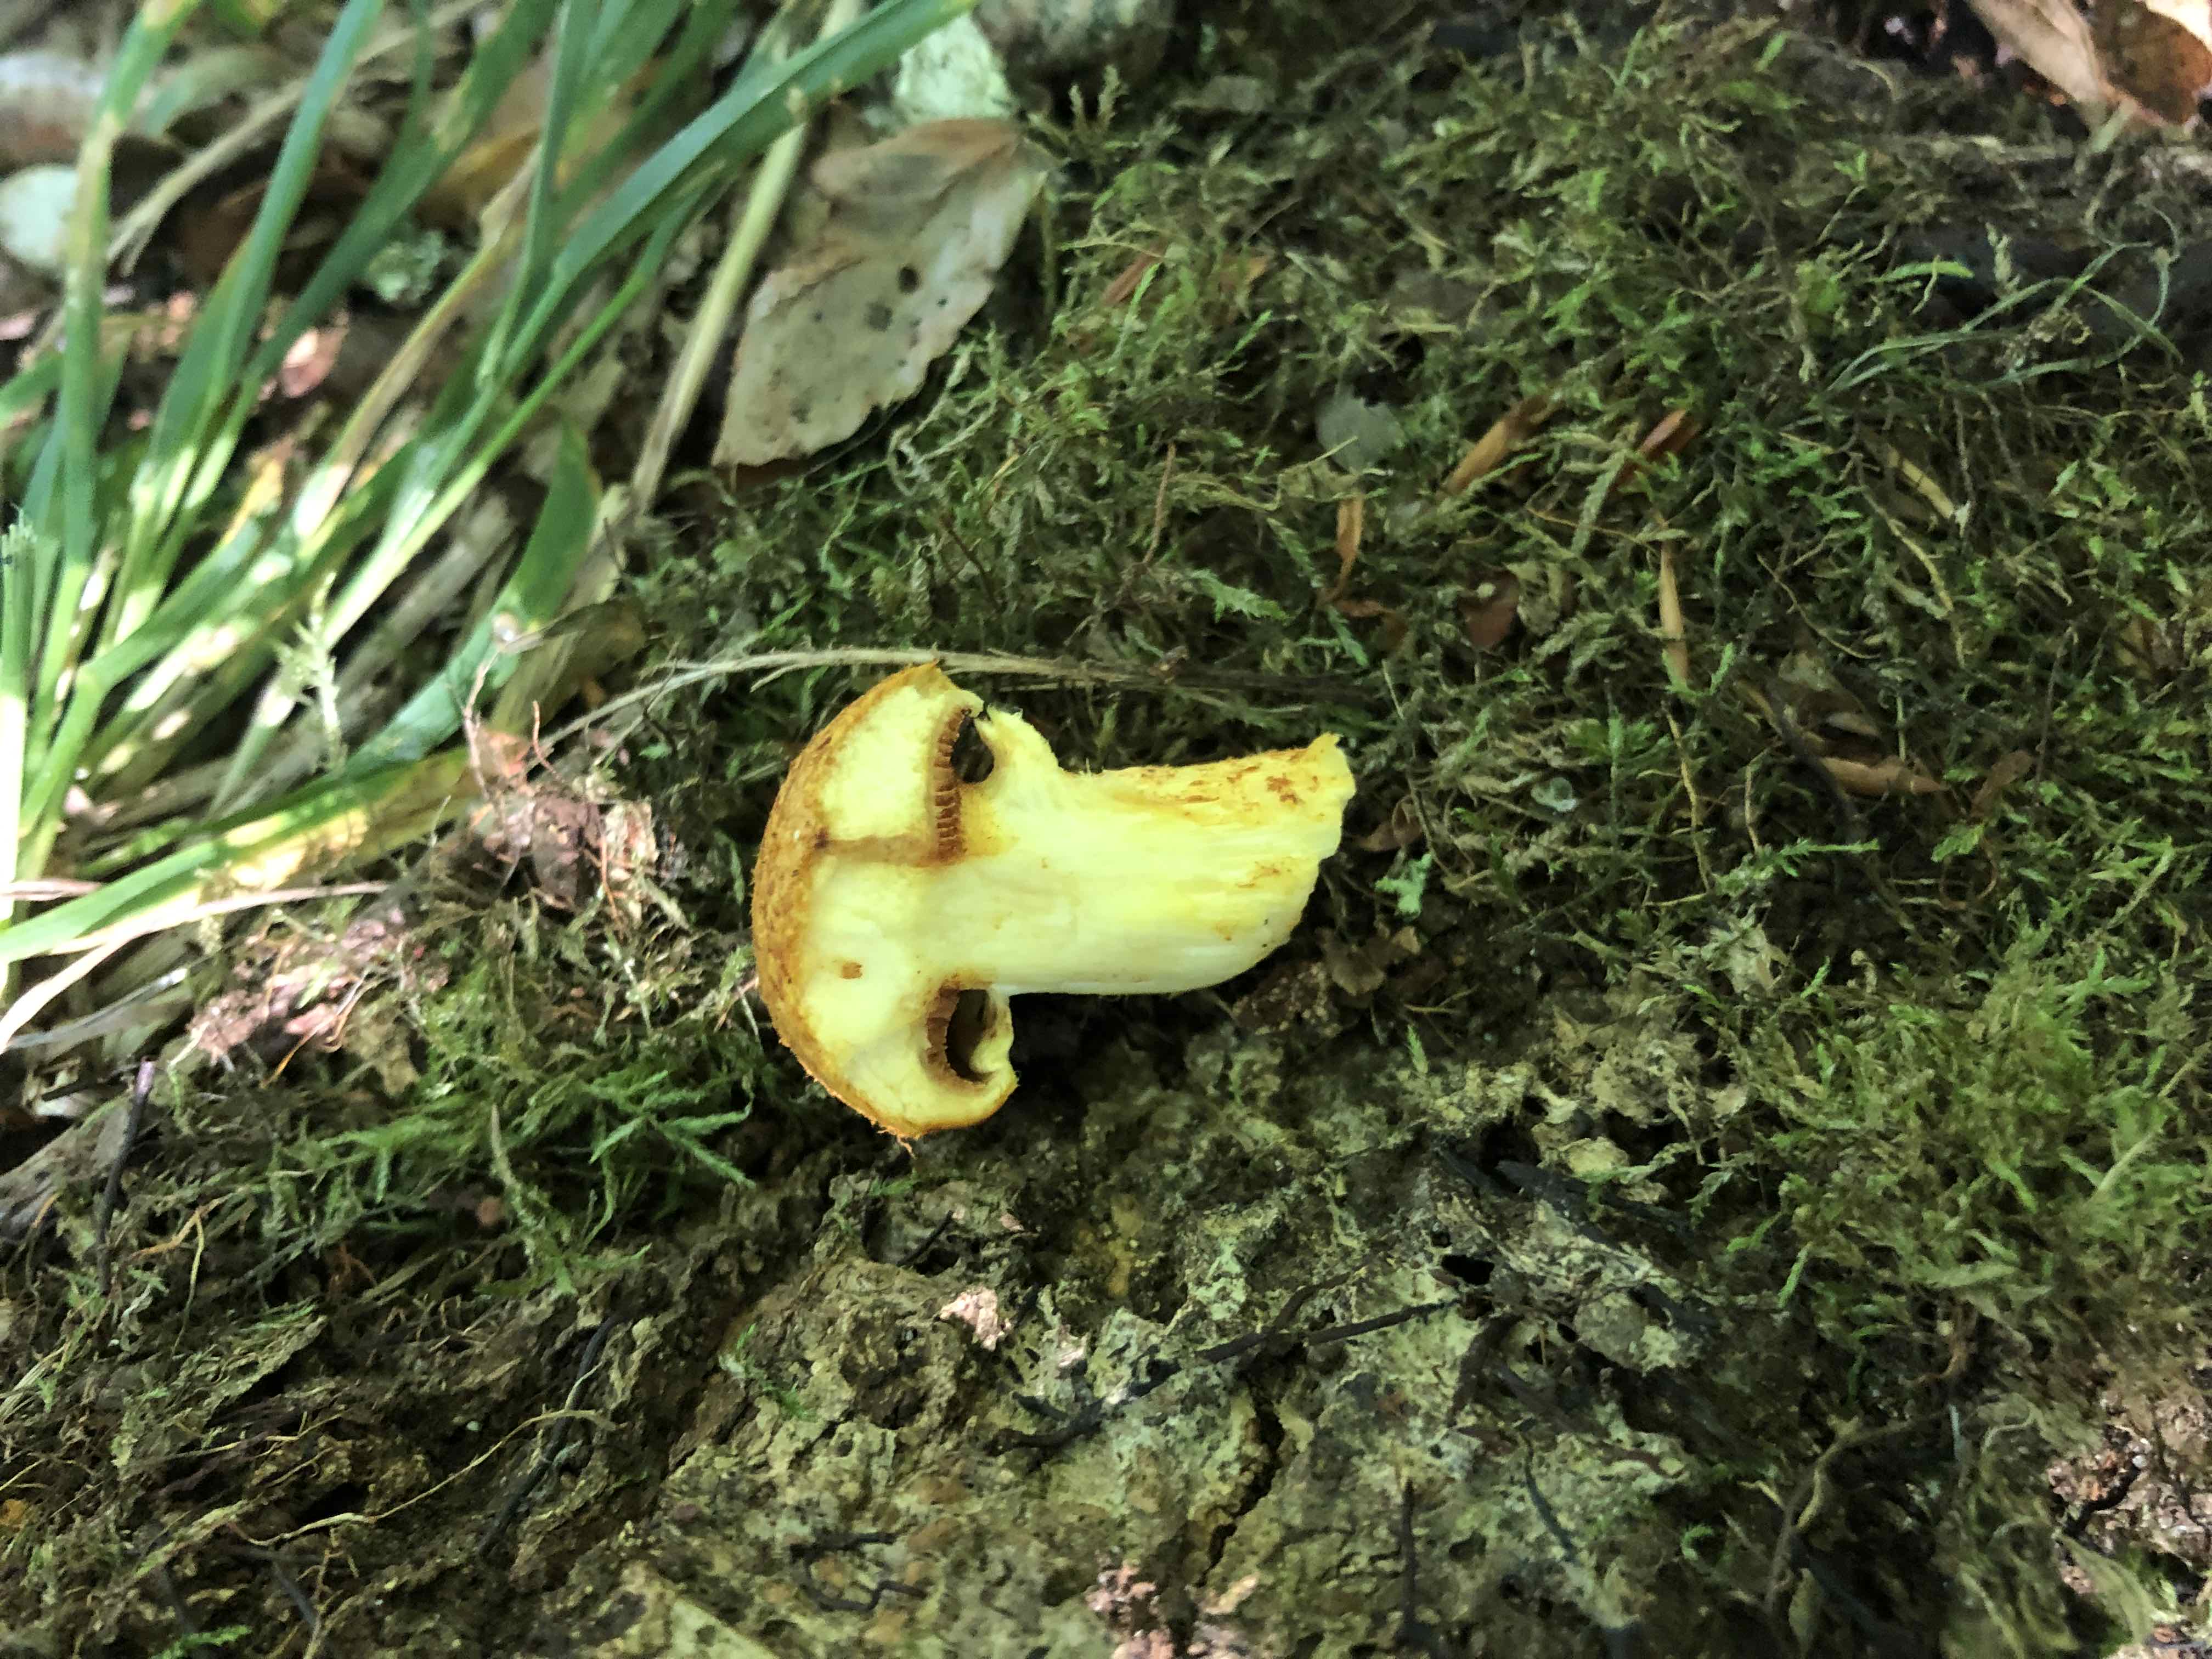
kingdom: Fungi
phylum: Basidiomycota
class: Agaricomycetes
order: Agaricales
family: Hymenogastraceae
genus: Gymnopilus
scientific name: Gymnopilus spectabilis
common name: fibret flammehat
